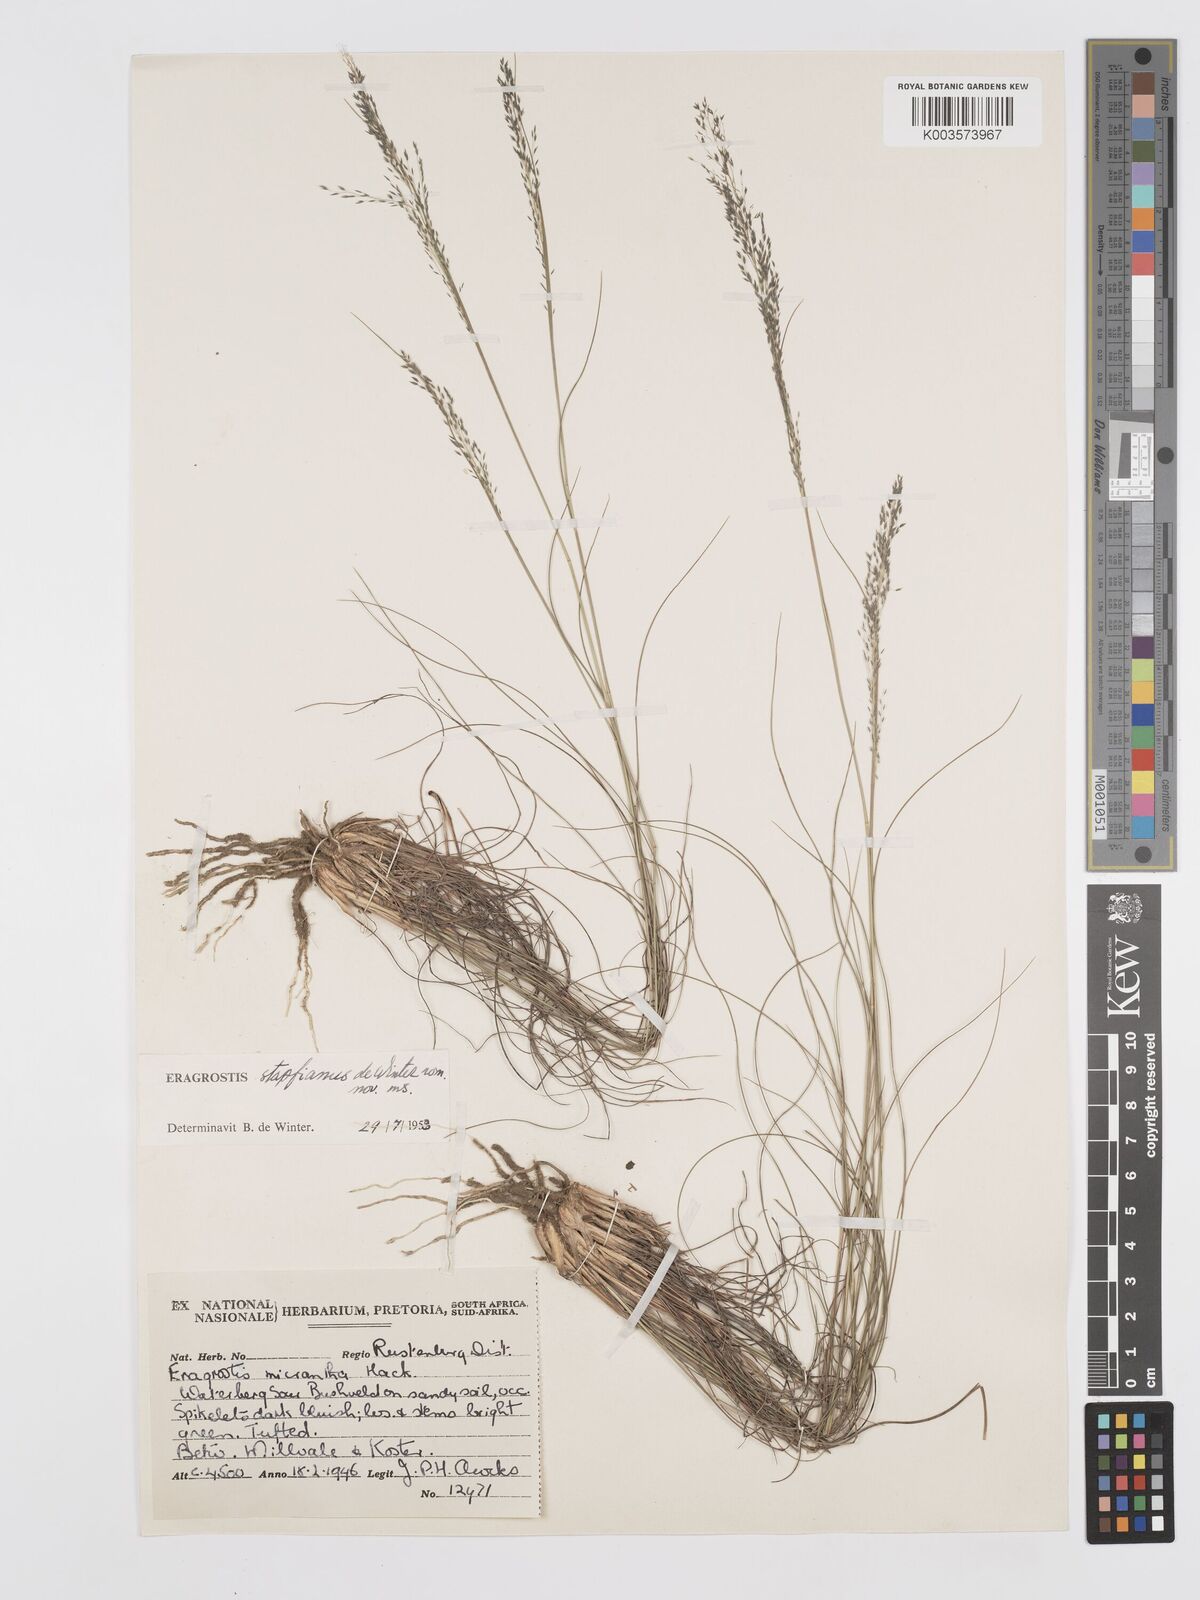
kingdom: Plantae
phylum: Tracheophyta
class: Liliopsida
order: Poales
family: Poaceae
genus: Eragrostis
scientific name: Eragrostis stapfii
